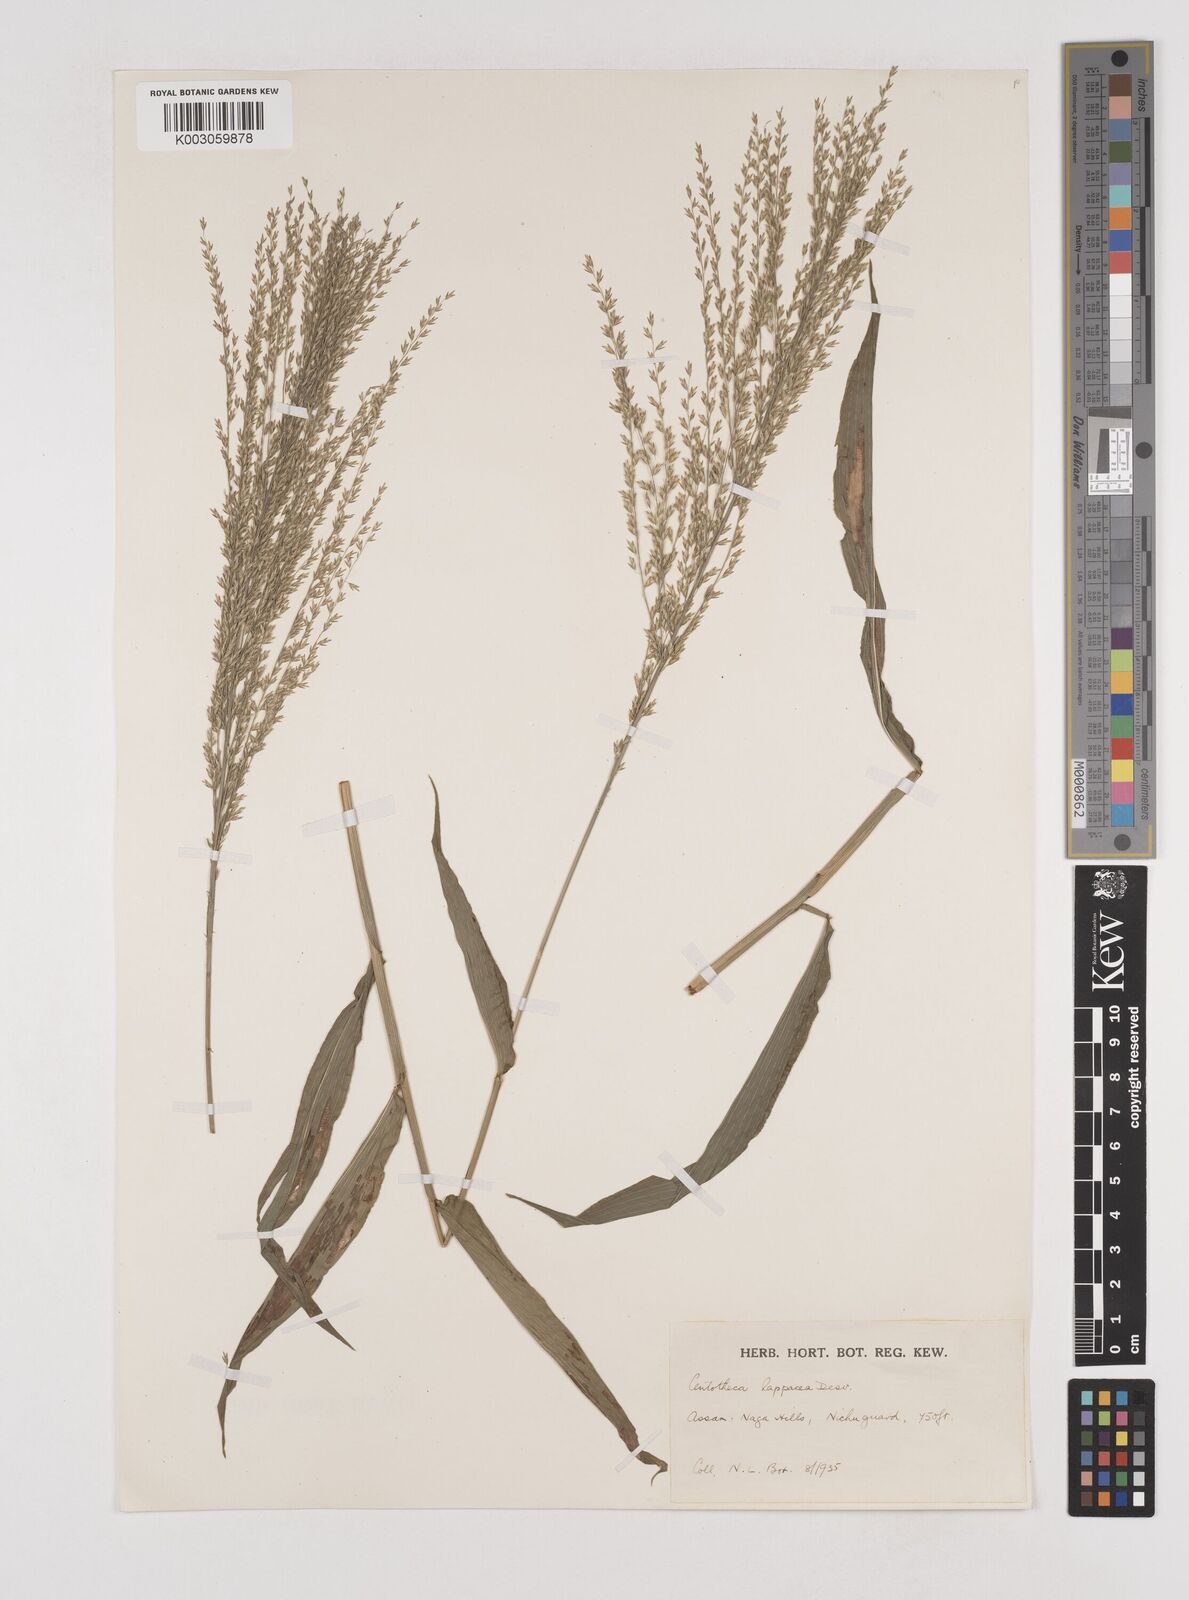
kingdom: Plantae
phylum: Tracheophyta
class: Liliopsida
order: Poales
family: Poaceae
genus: Centotheca
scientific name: Centotheca lappacea
